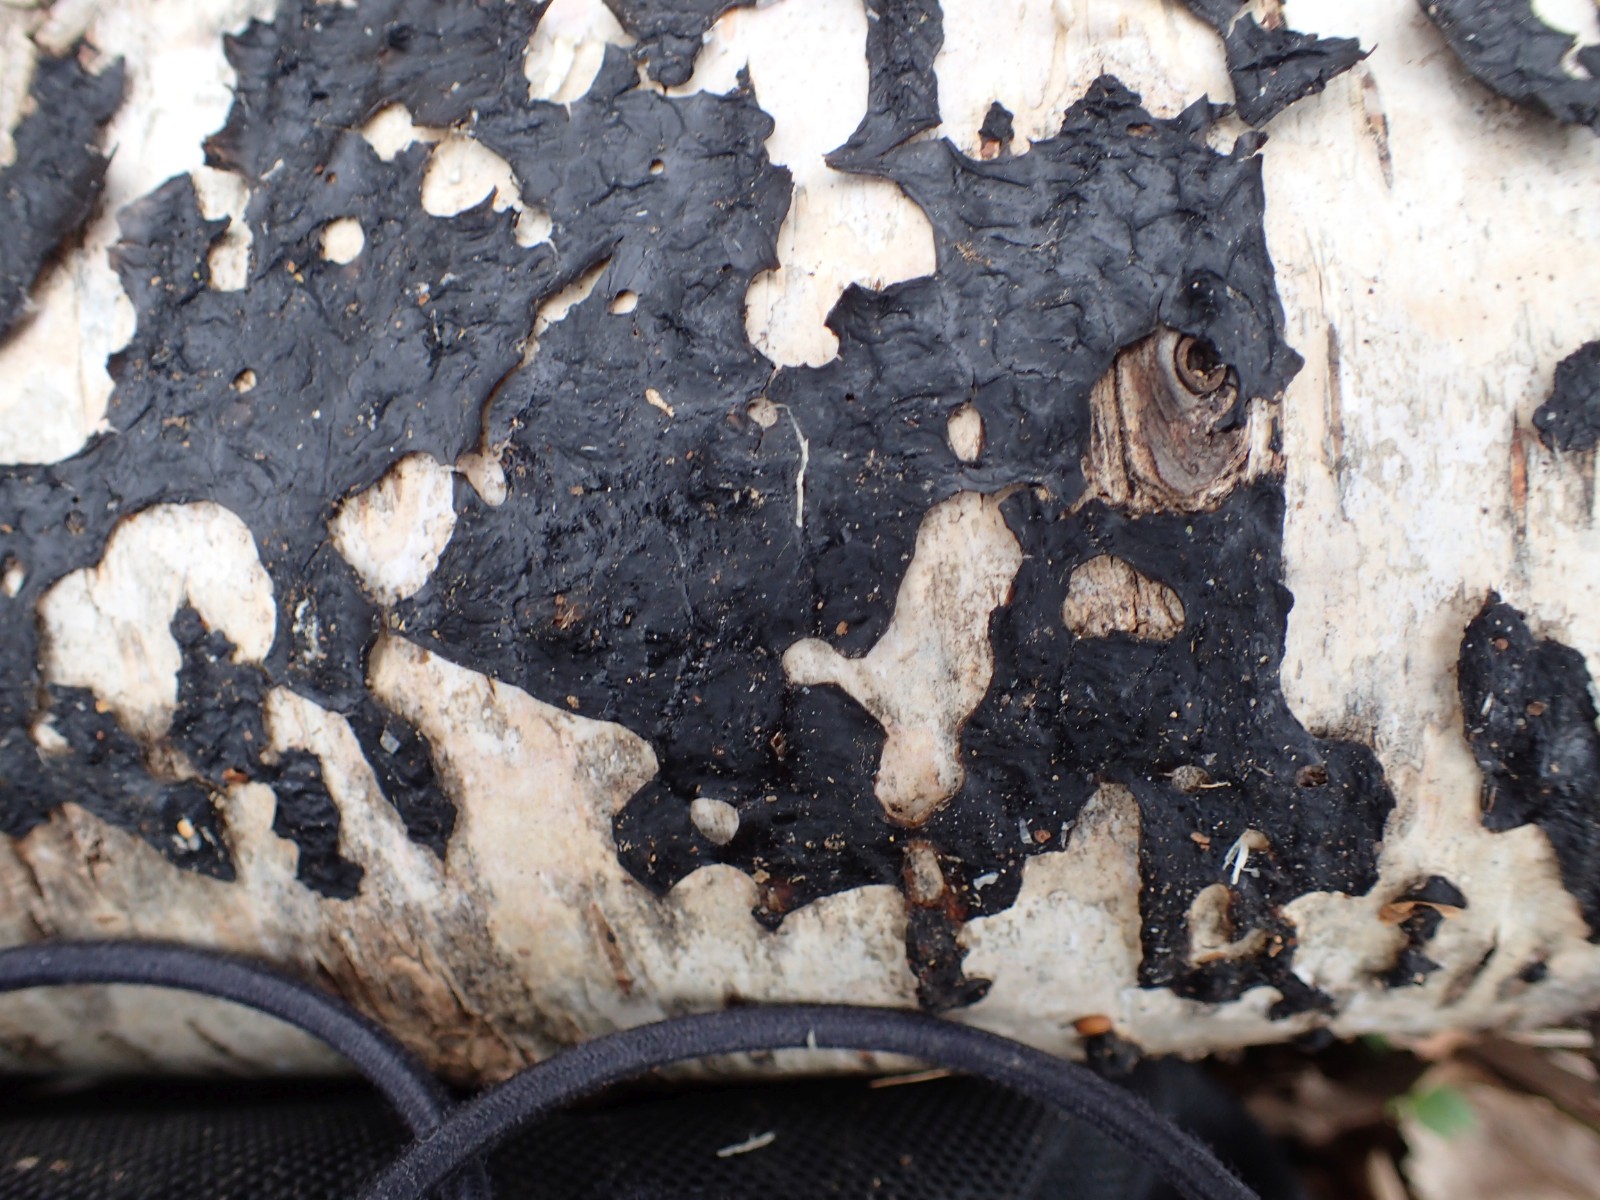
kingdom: Fungi
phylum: Basidiomycota
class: Agaricomycetes
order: Auriculariales
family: Auriculariaceae
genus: Exidia
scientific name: Exidia nigricans
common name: almindelig bævretop
